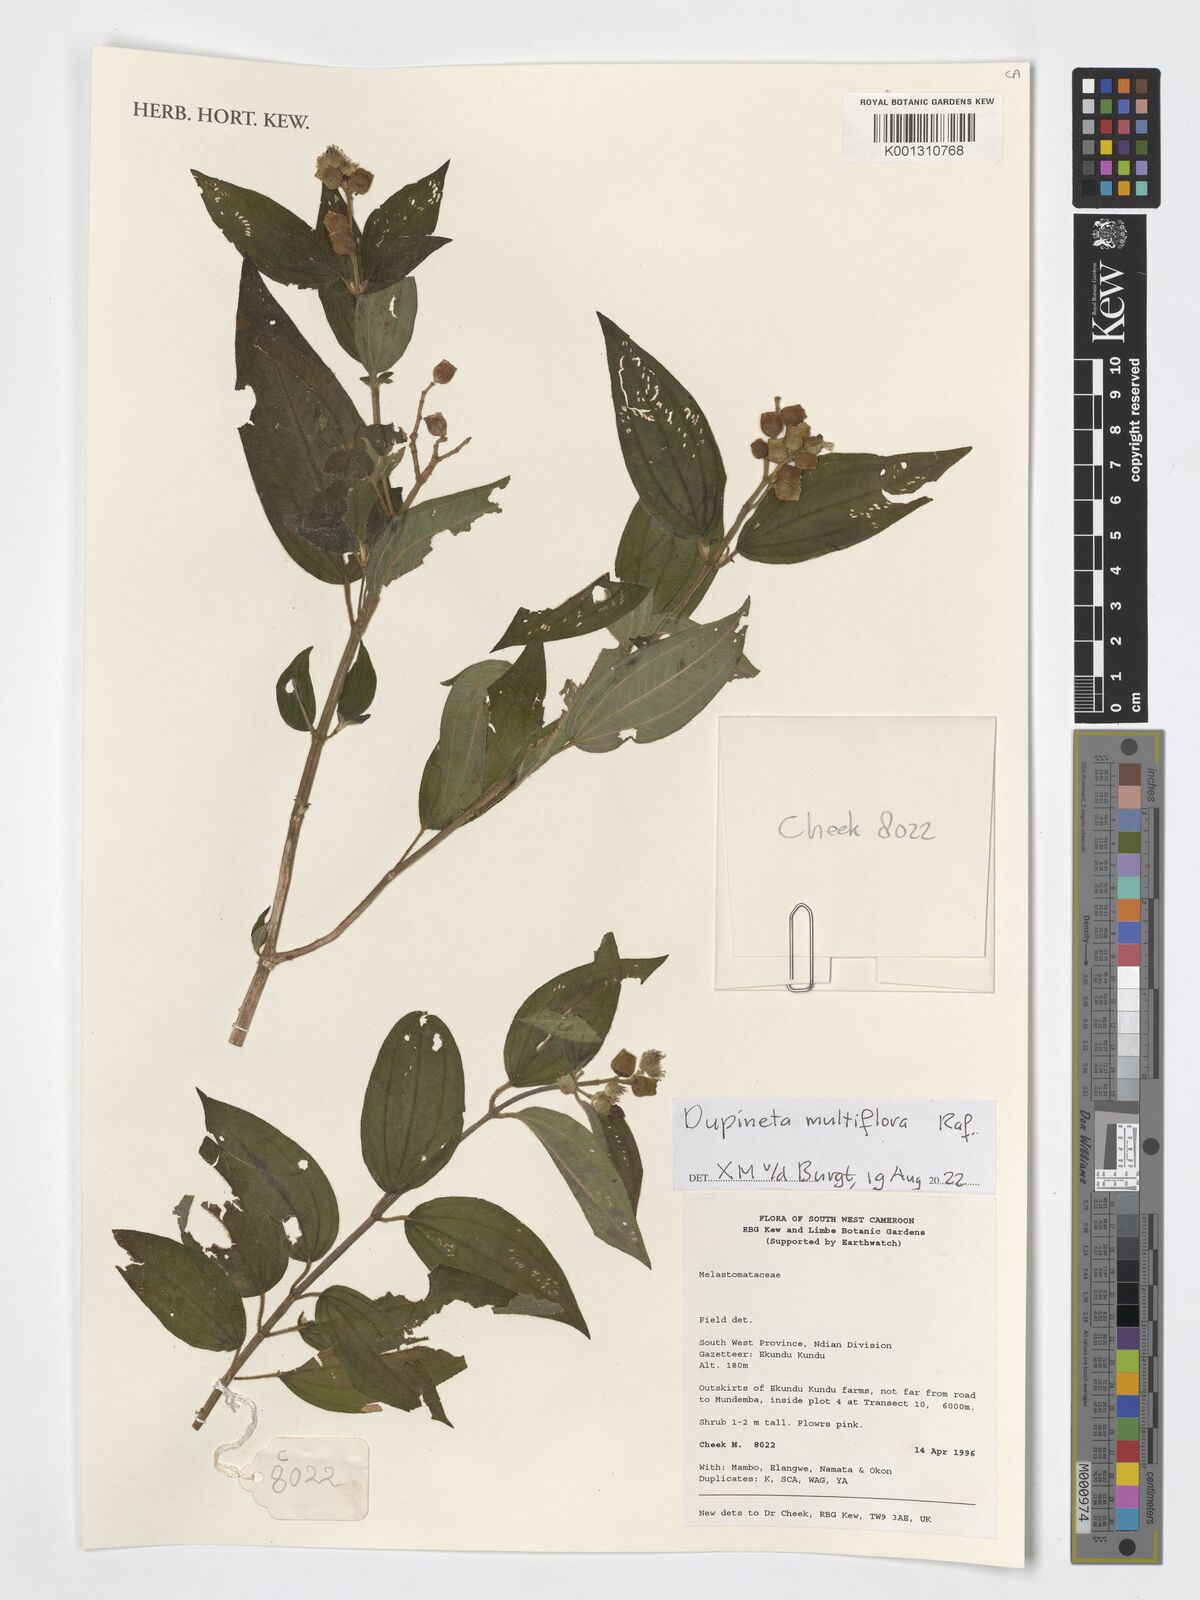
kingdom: Plantae
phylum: Tracheophyta
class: Magnoliopsida
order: Myrtales
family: Melastomataceae
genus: Dupineta
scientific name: Dupineta multiflora
